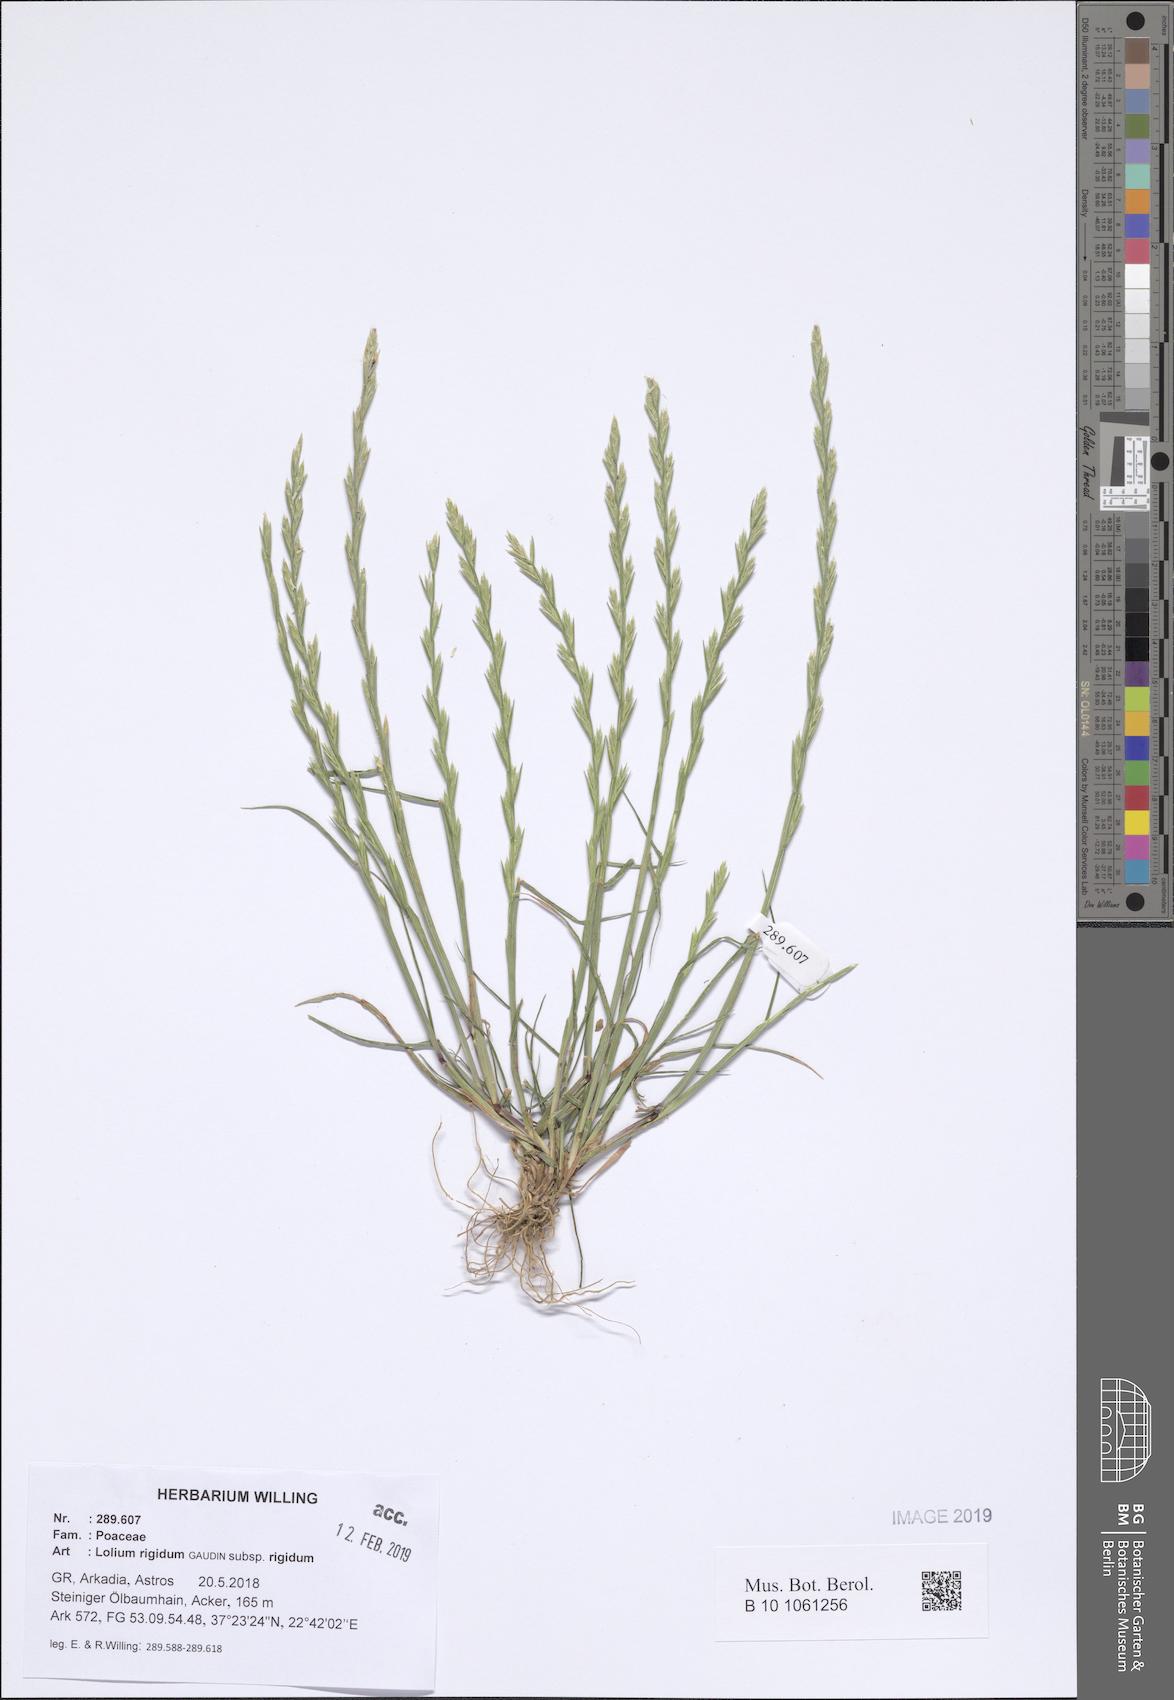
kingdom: Plantae
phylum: Tracheophyta
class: Liliopsida
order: Poales
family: Poaceae
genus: Lolium
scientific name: Lolium rigidum
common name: Wimmera ryegrass
